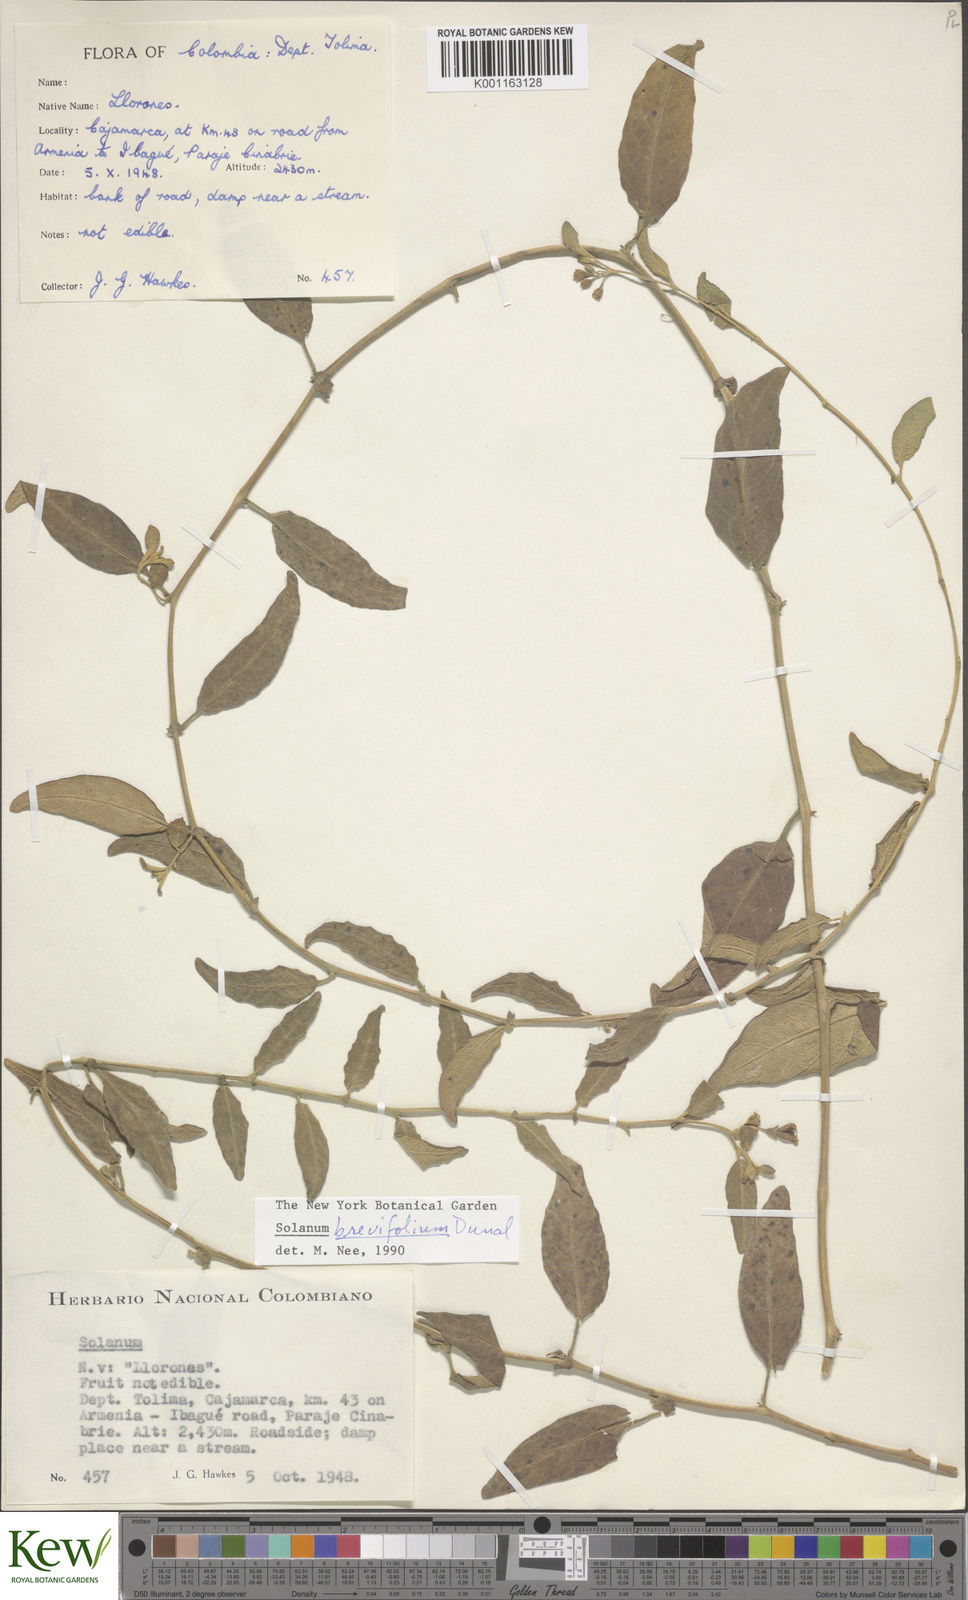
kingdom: Plantae
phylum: Tracheophyta
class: Magnoliopsida
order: Solanales
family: Solanaceae
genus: Solanum
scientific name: Solanum brevifolium
